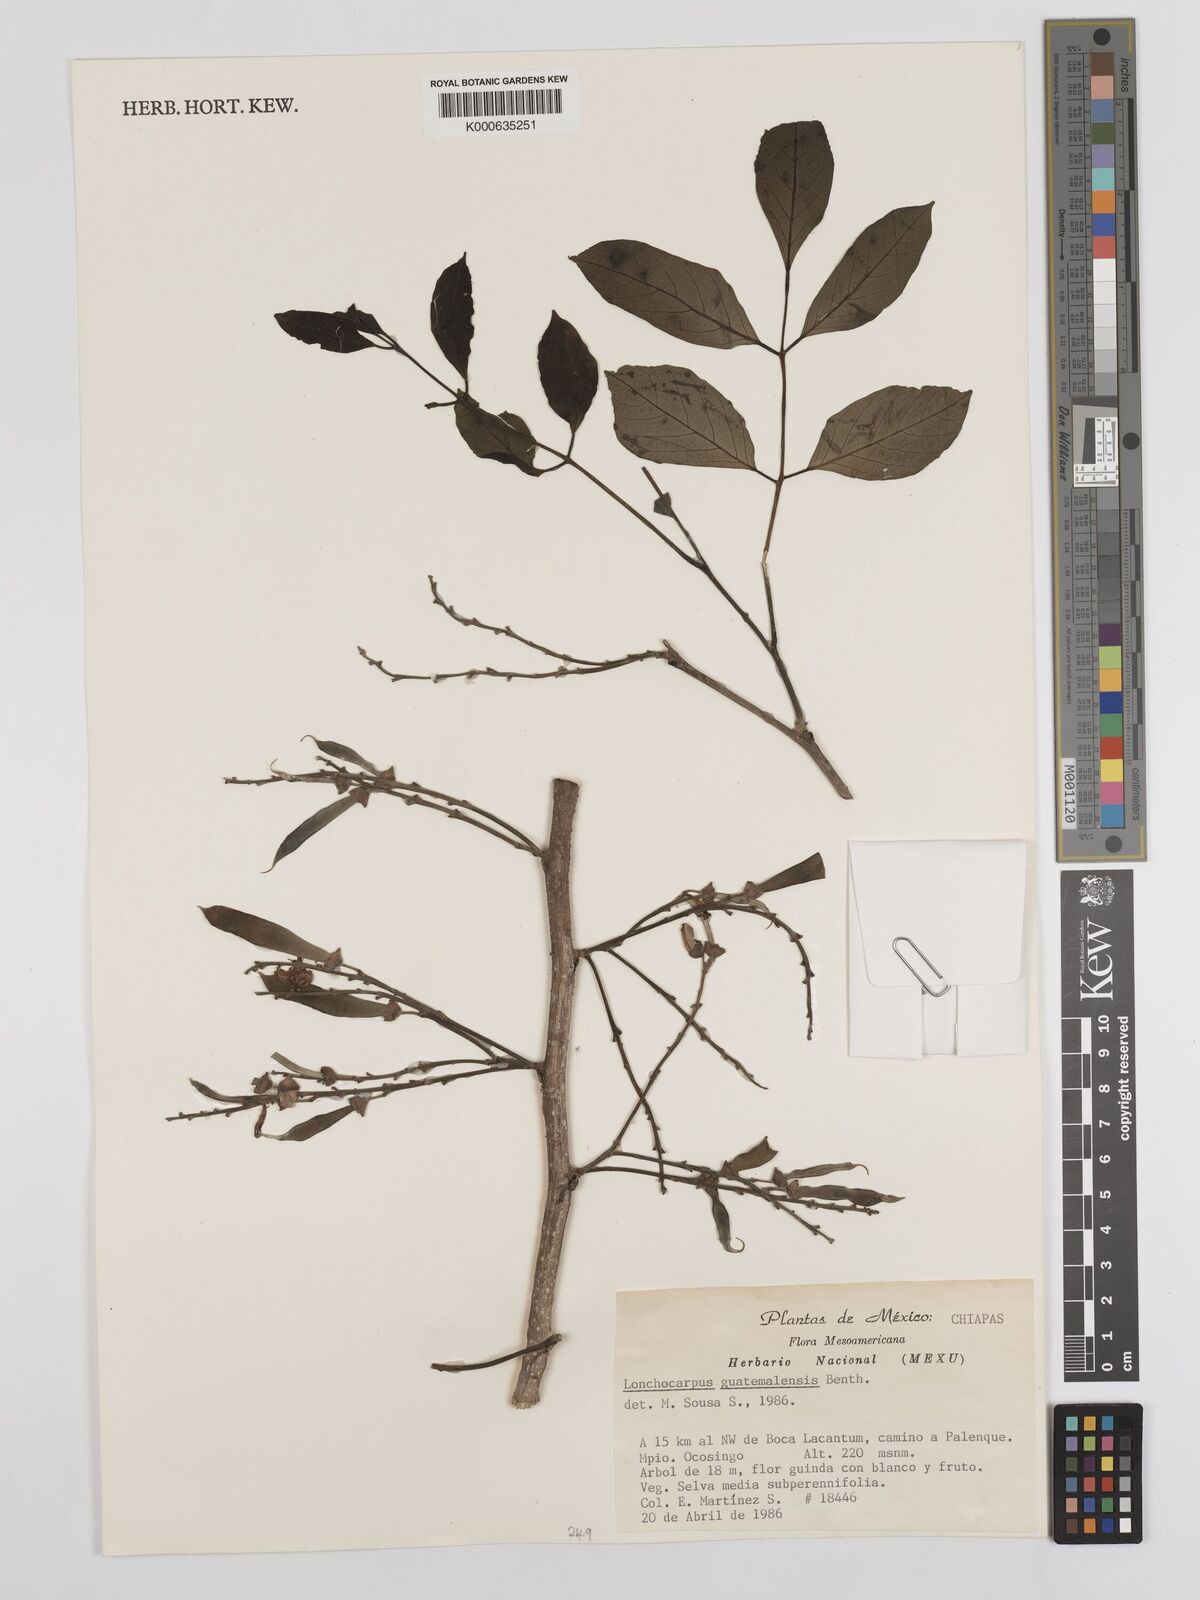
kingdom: Plantae
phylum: Tracheophyta
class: Magnoliopsida
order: Fabales
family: Fabaceae
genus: Lonchocarpus
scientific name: Lonchocarpus guatemalensis
